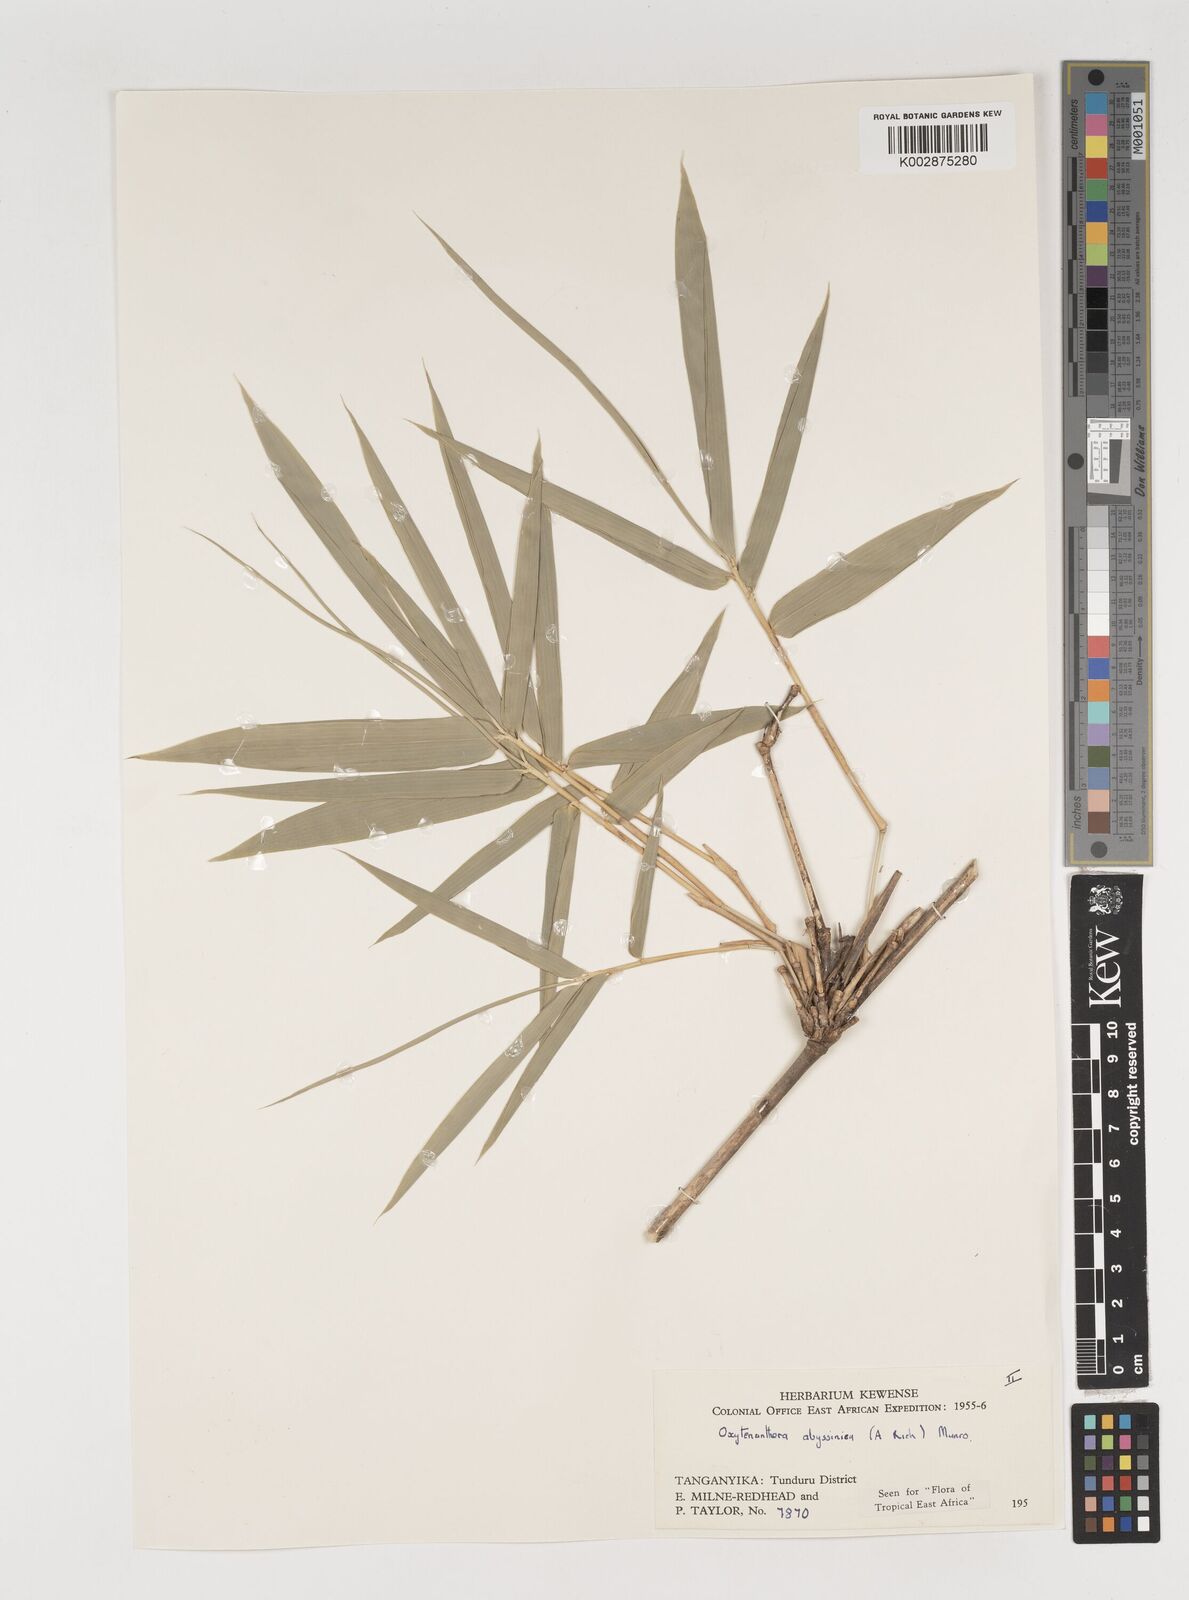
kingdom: Plantae
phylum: Tracheophyta
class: Liliopsida
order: Poales
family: Poaceae
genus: Oxytenanthera
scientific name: Oxytenanthera abyssinica
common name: Wine bamboo
